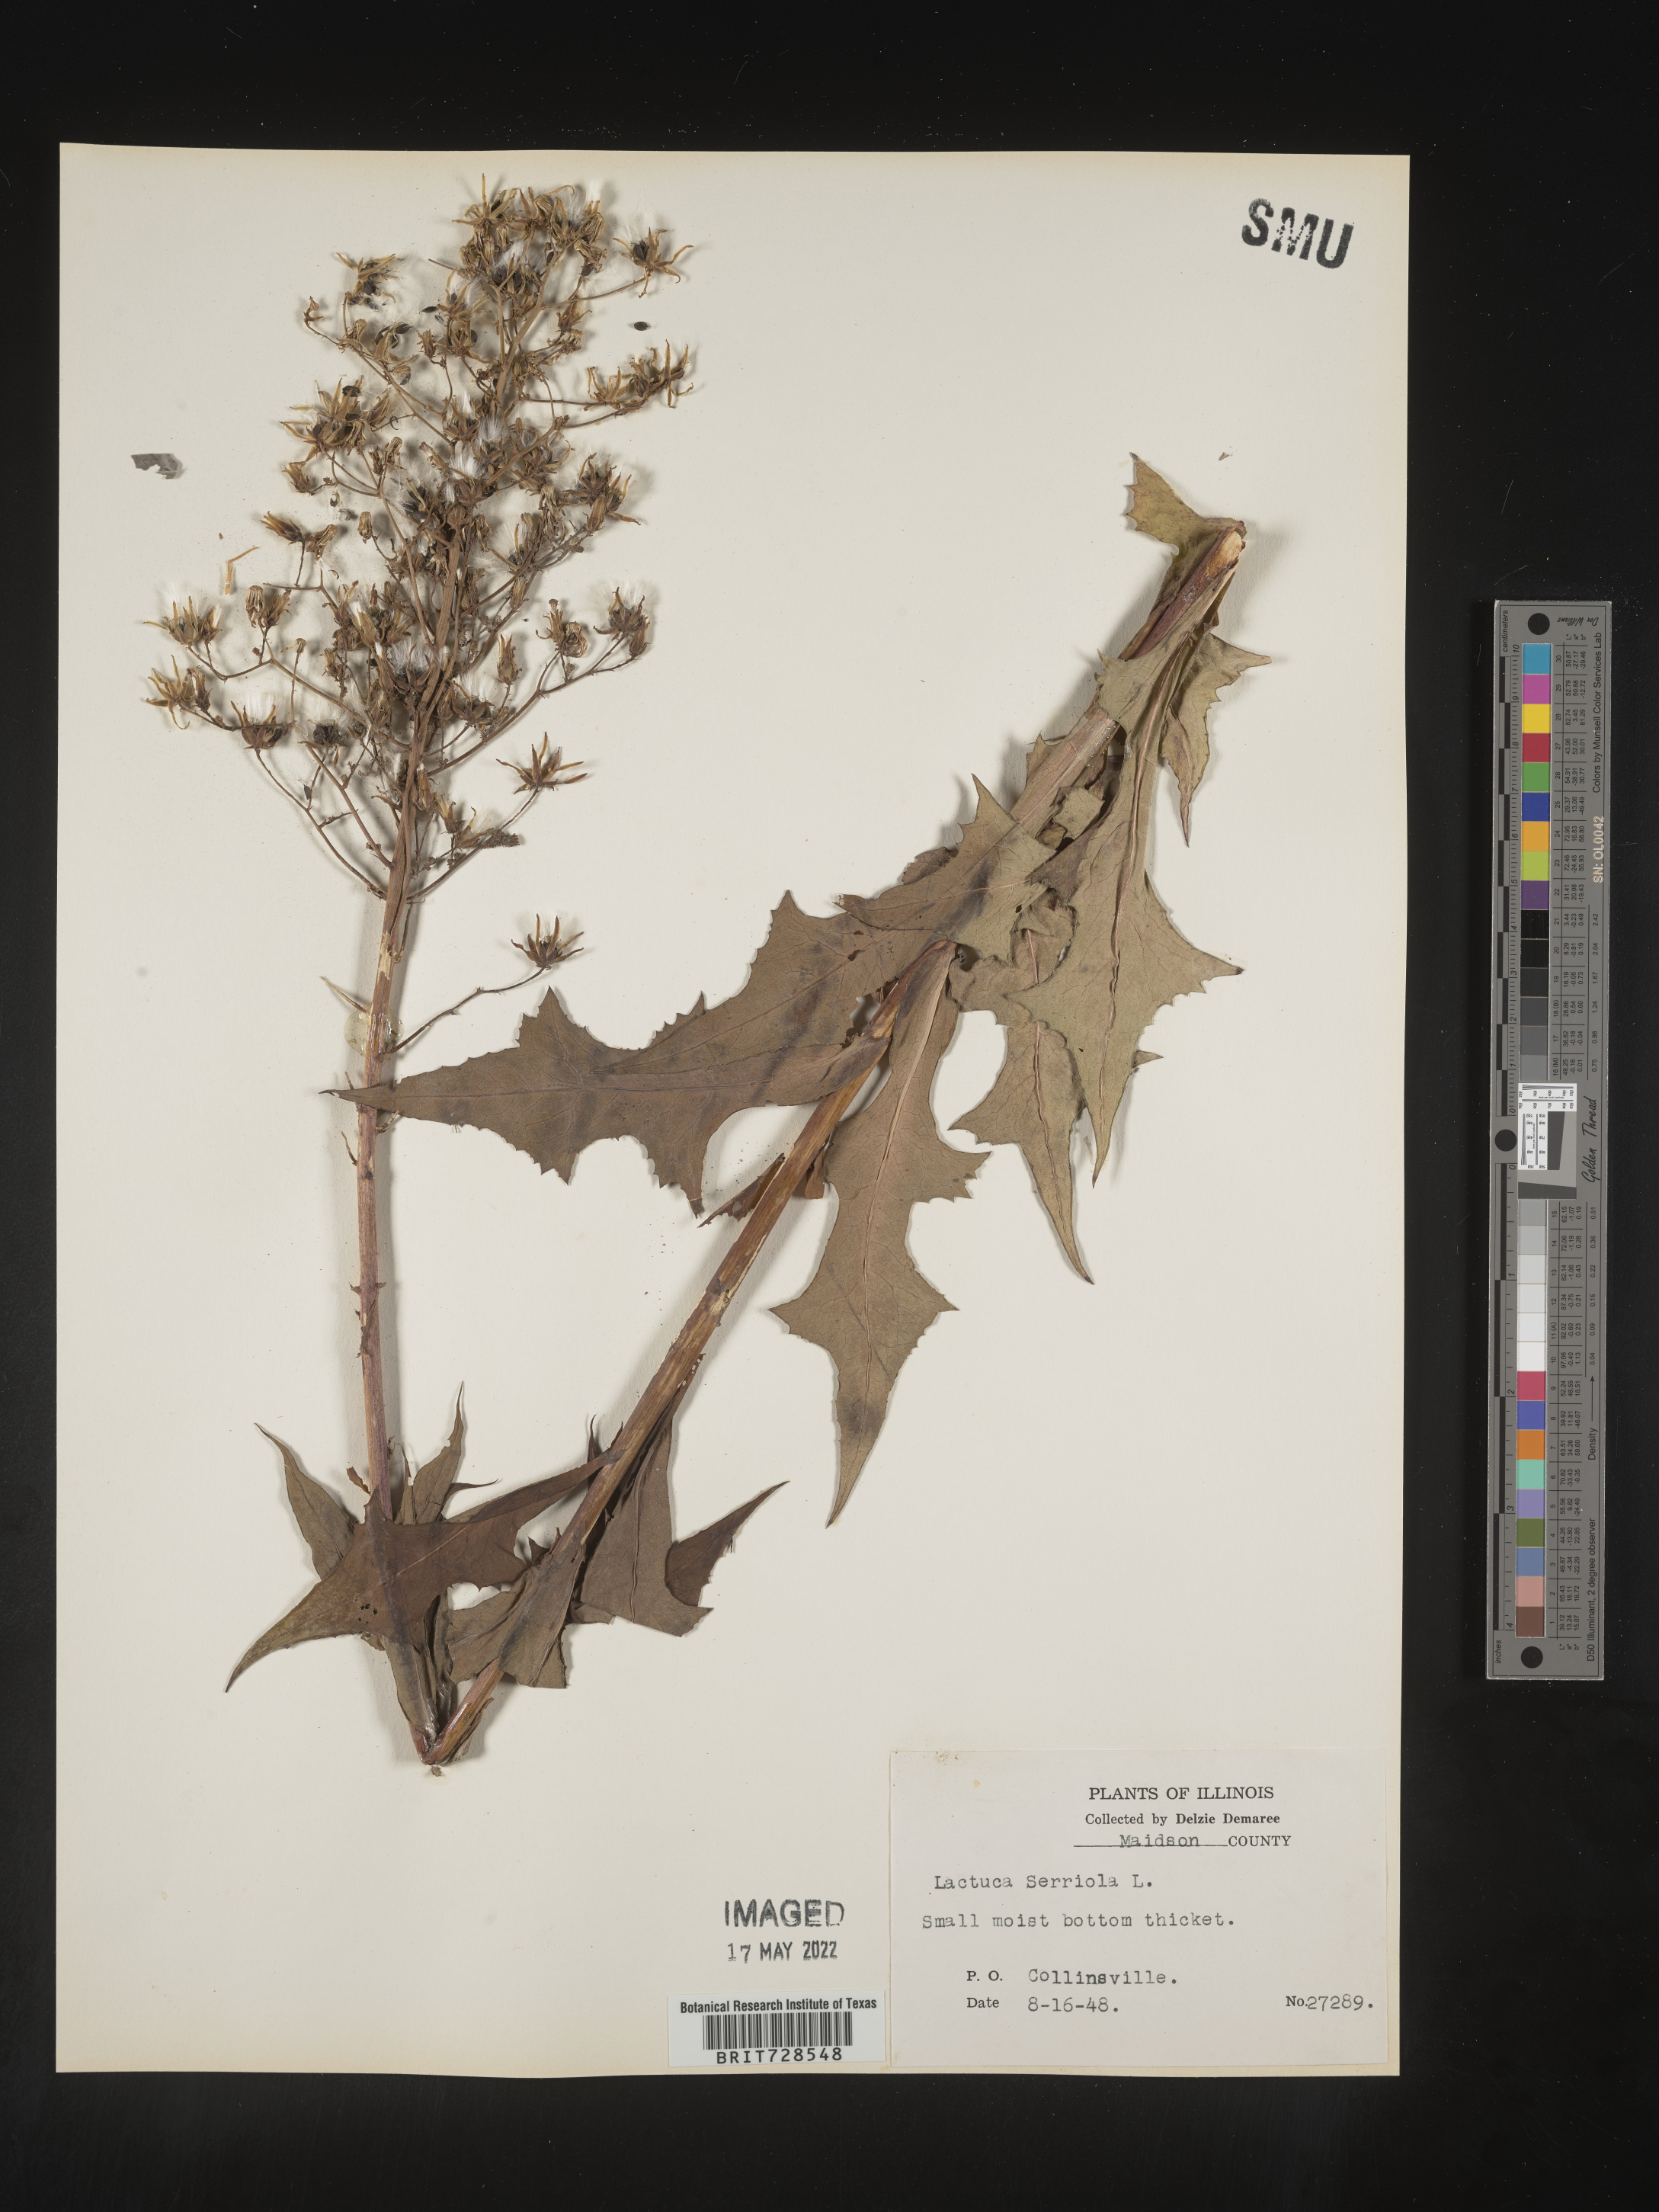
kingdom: Plantae
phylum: Tracheophyta
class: Magnoliopsida
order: Asterales
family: Asteraceae
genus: Lactuca
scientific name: Lactuca
